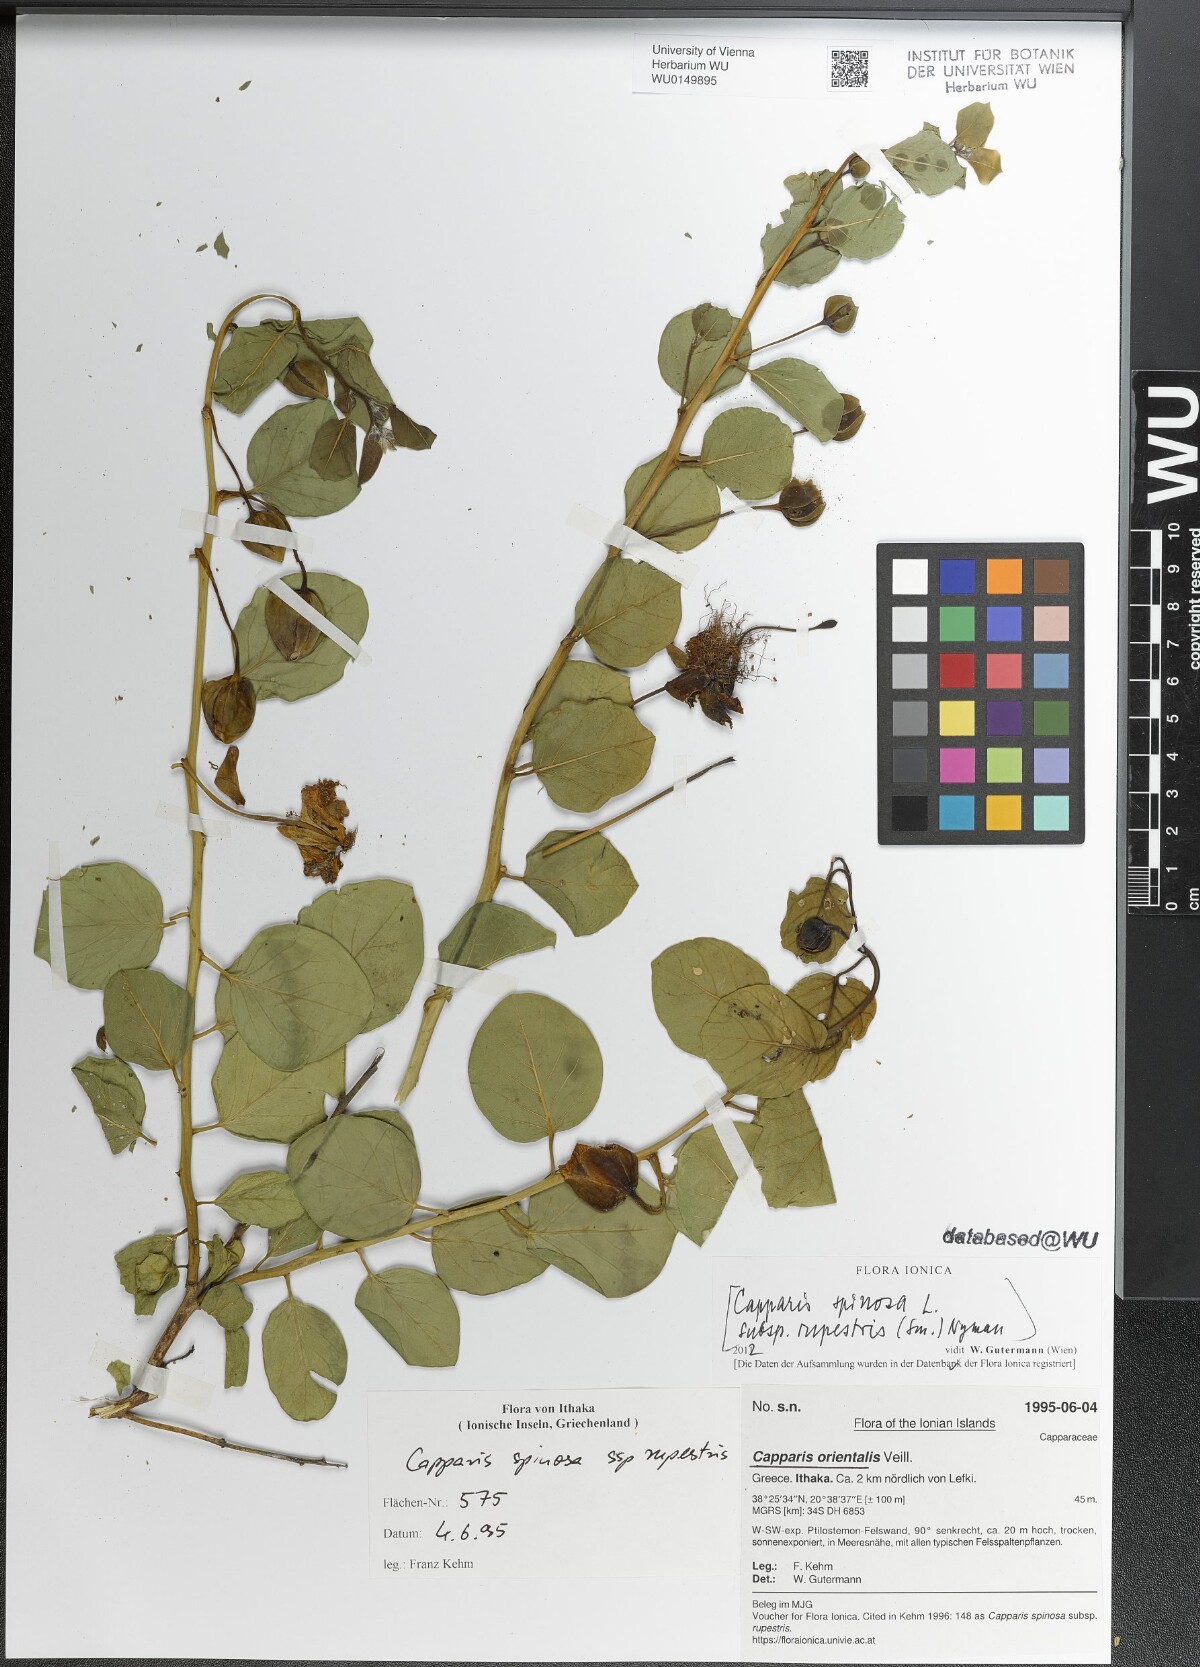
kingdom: Plantae
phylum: Tracheophyta
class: Magnoliopsida
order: Brassicales
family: Capparaceae
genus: Capparis
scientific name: Capparis spinosa
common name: Caper
